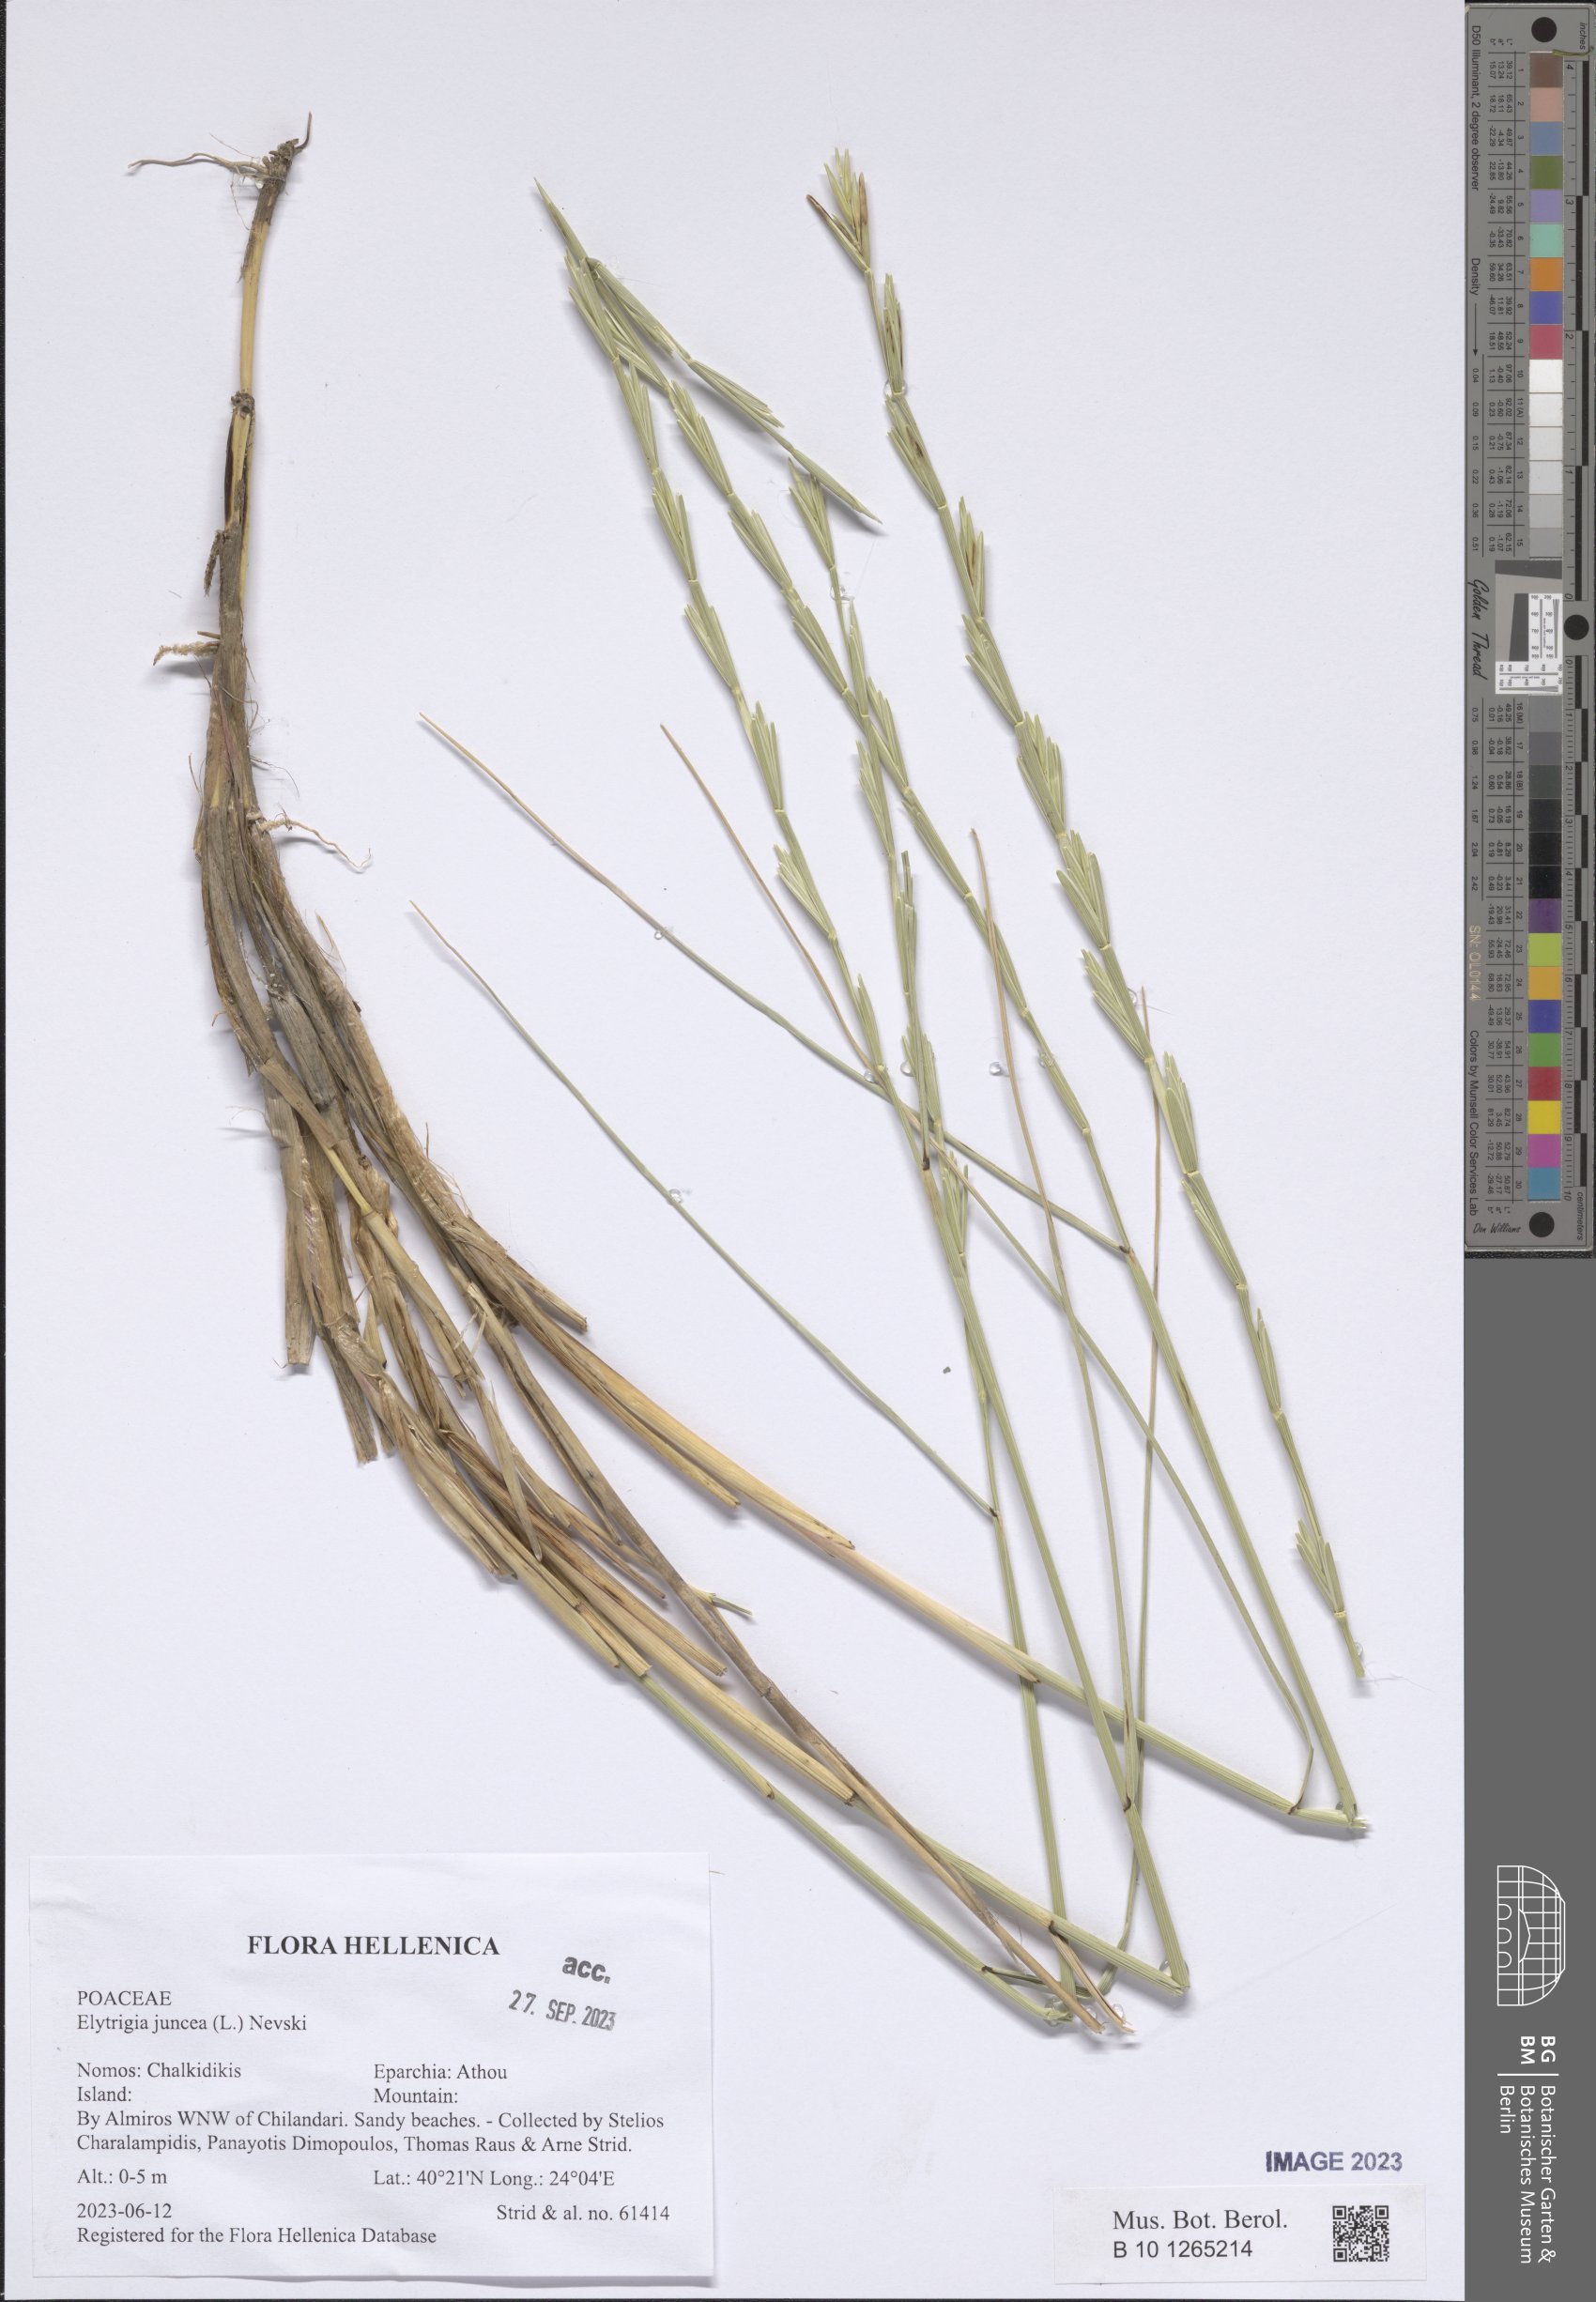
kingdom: Plantae
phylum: Tracheophyta
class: Liliopsida
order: Poales
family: Poaceae
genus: Thinopyrum
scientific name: Thinopyrum junceum
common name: Russian wheatgrass
